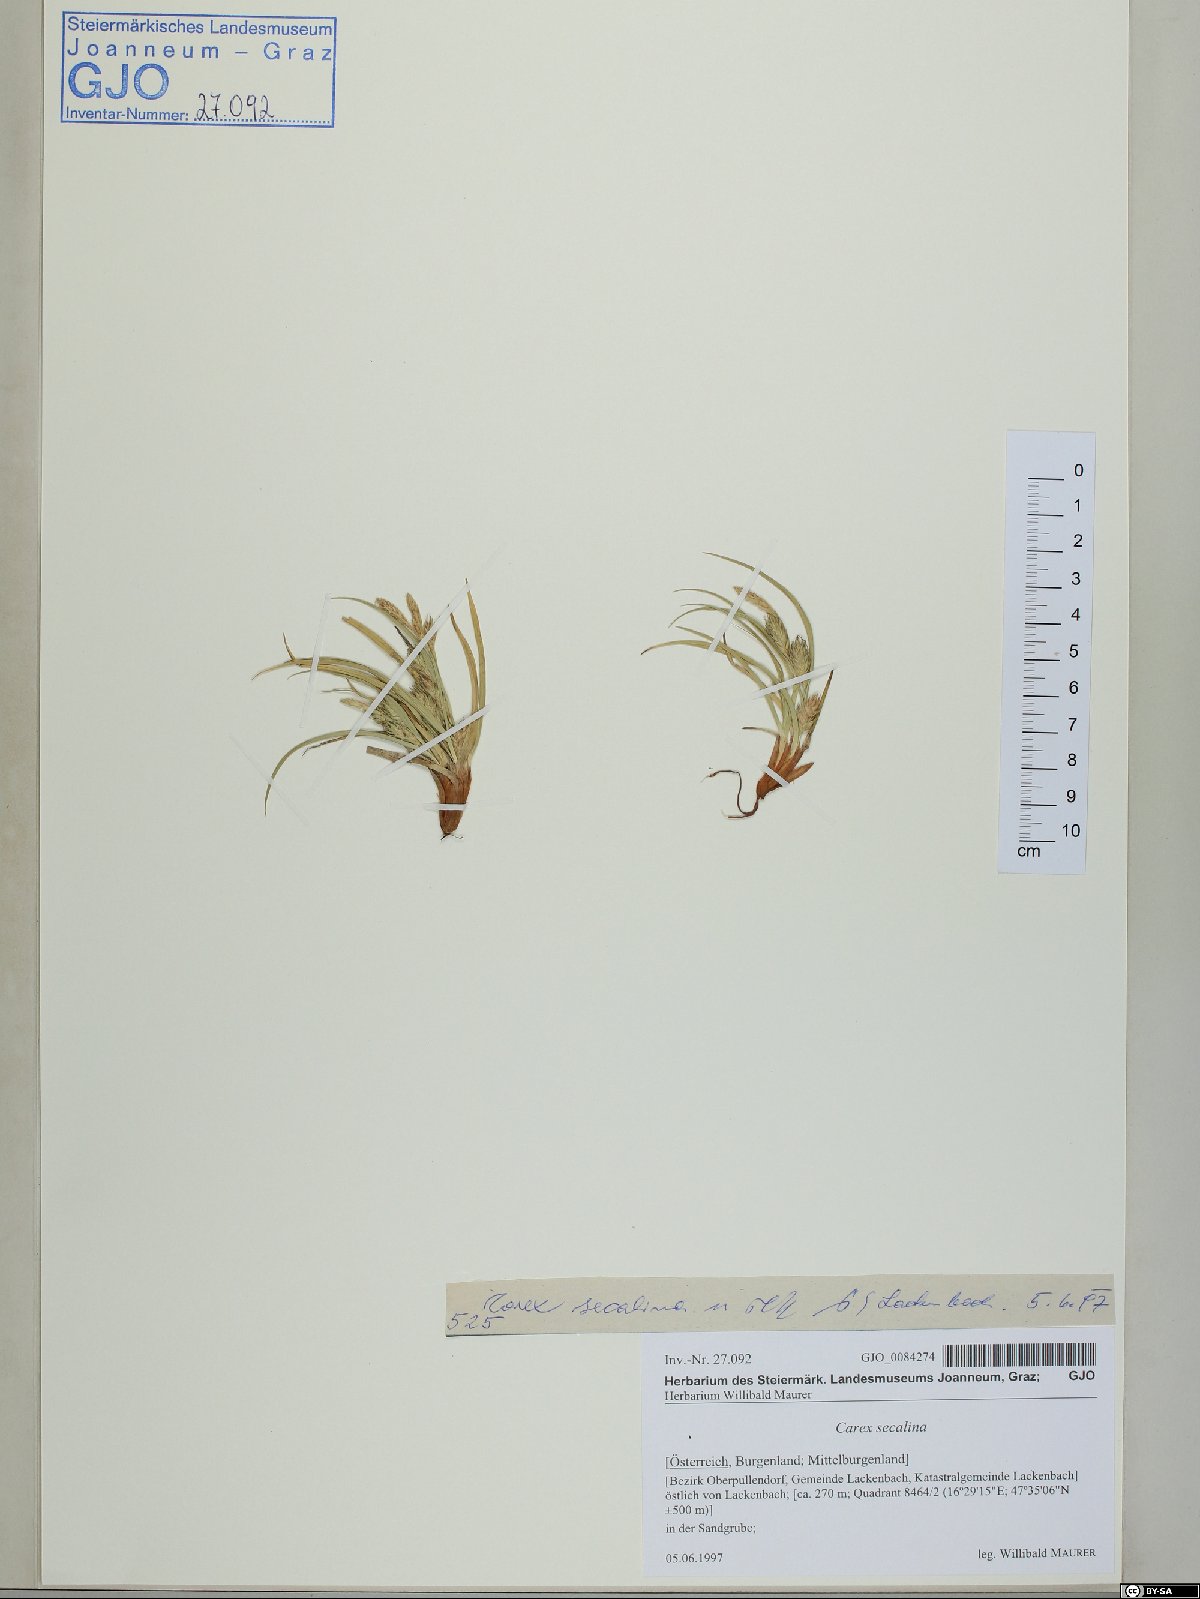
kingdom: Plantae
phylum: Tracheophyta
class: Liliopsida
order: Poales
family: Cyperaceae
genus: Carex
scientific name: Carex secalina
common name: Rye sedge
